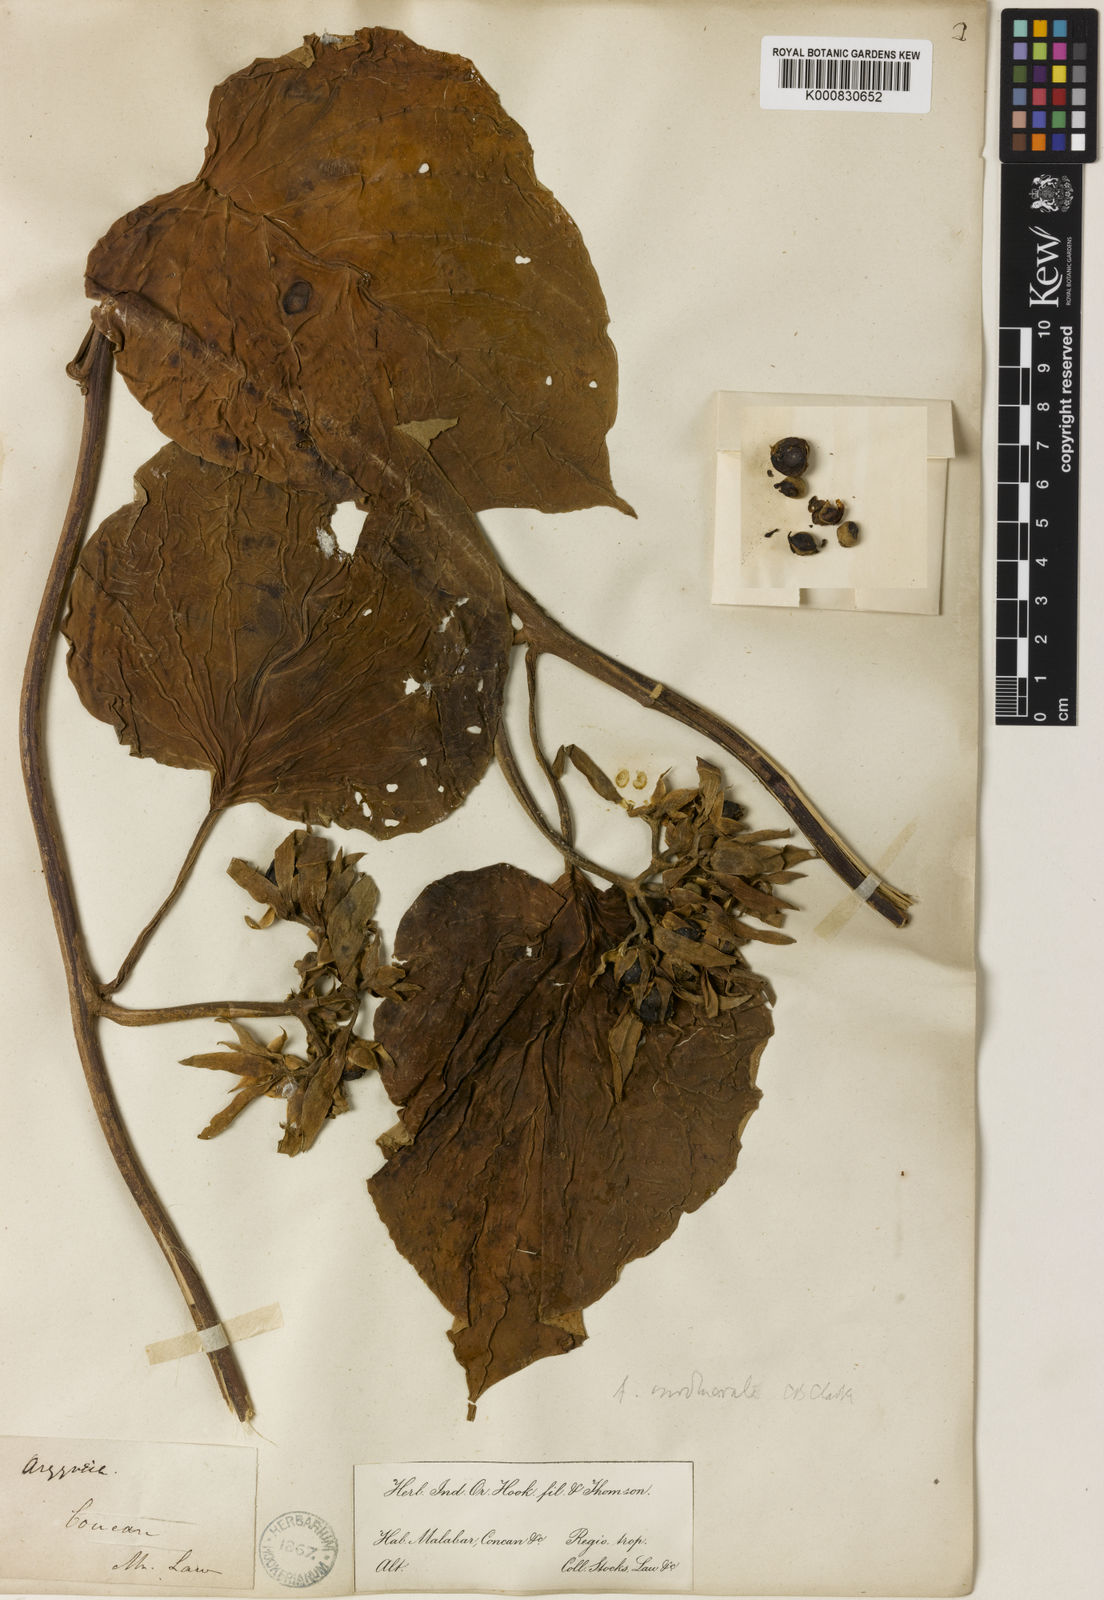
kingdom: Plantae
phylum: Tracheophyta
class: Magnoliopsida
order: Solanales
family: Convolvulaceae
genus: Argyreia
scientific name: Argyreia involucrata
